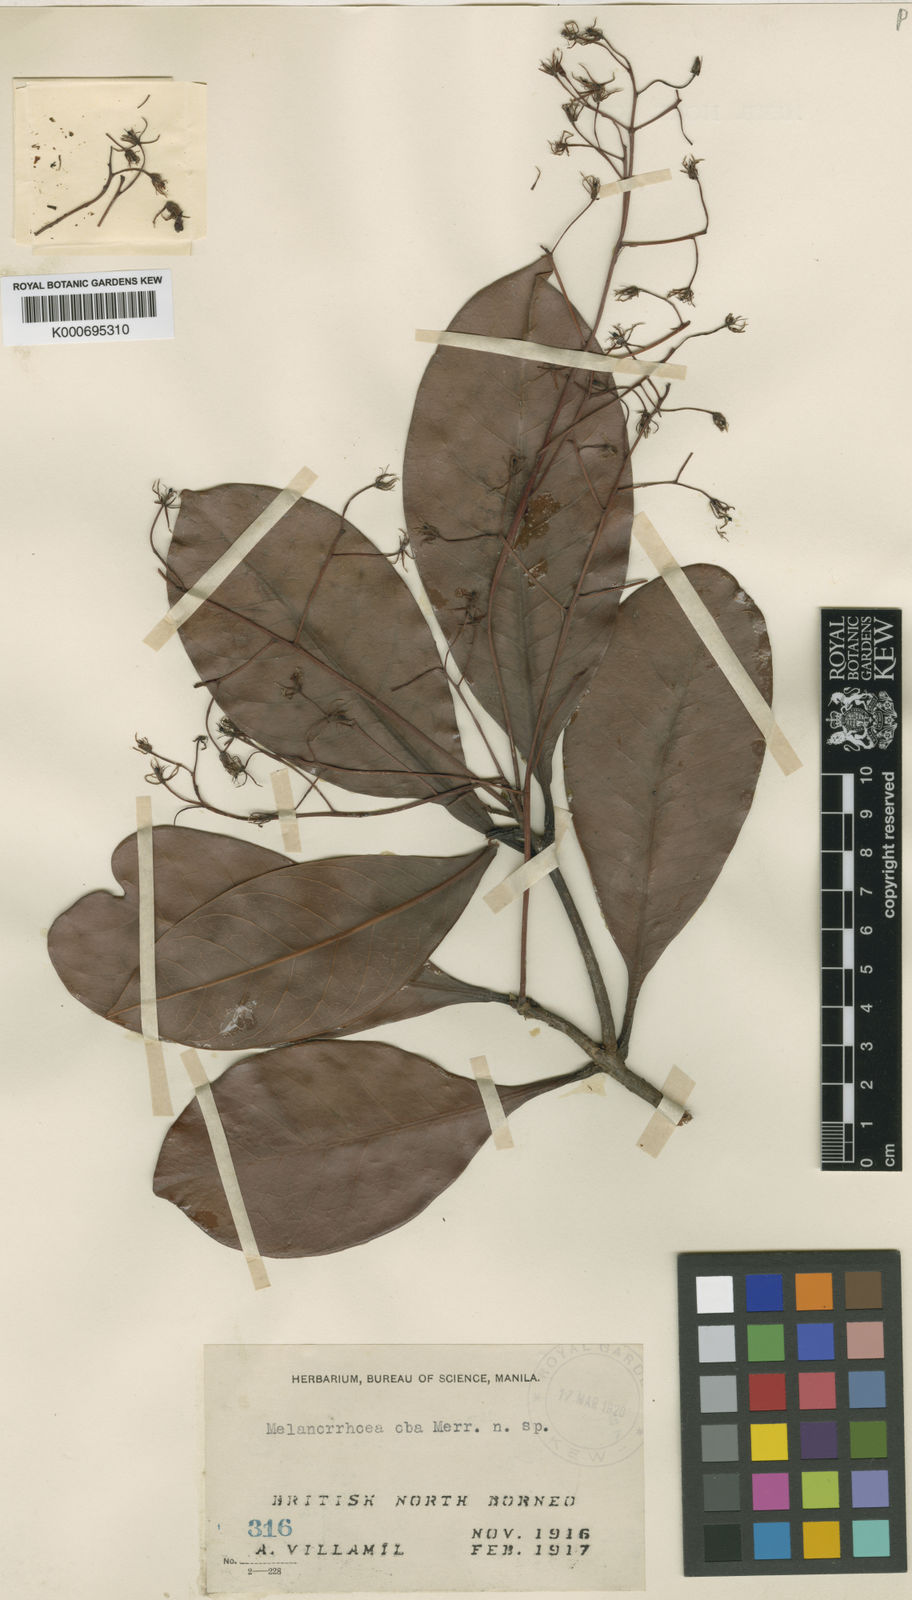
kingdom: Plantae
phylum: Tracheophyta
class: Magnoliopsida
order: Sapindales
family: Anacardiaceae
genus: Gluta
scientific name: Gluta oba
